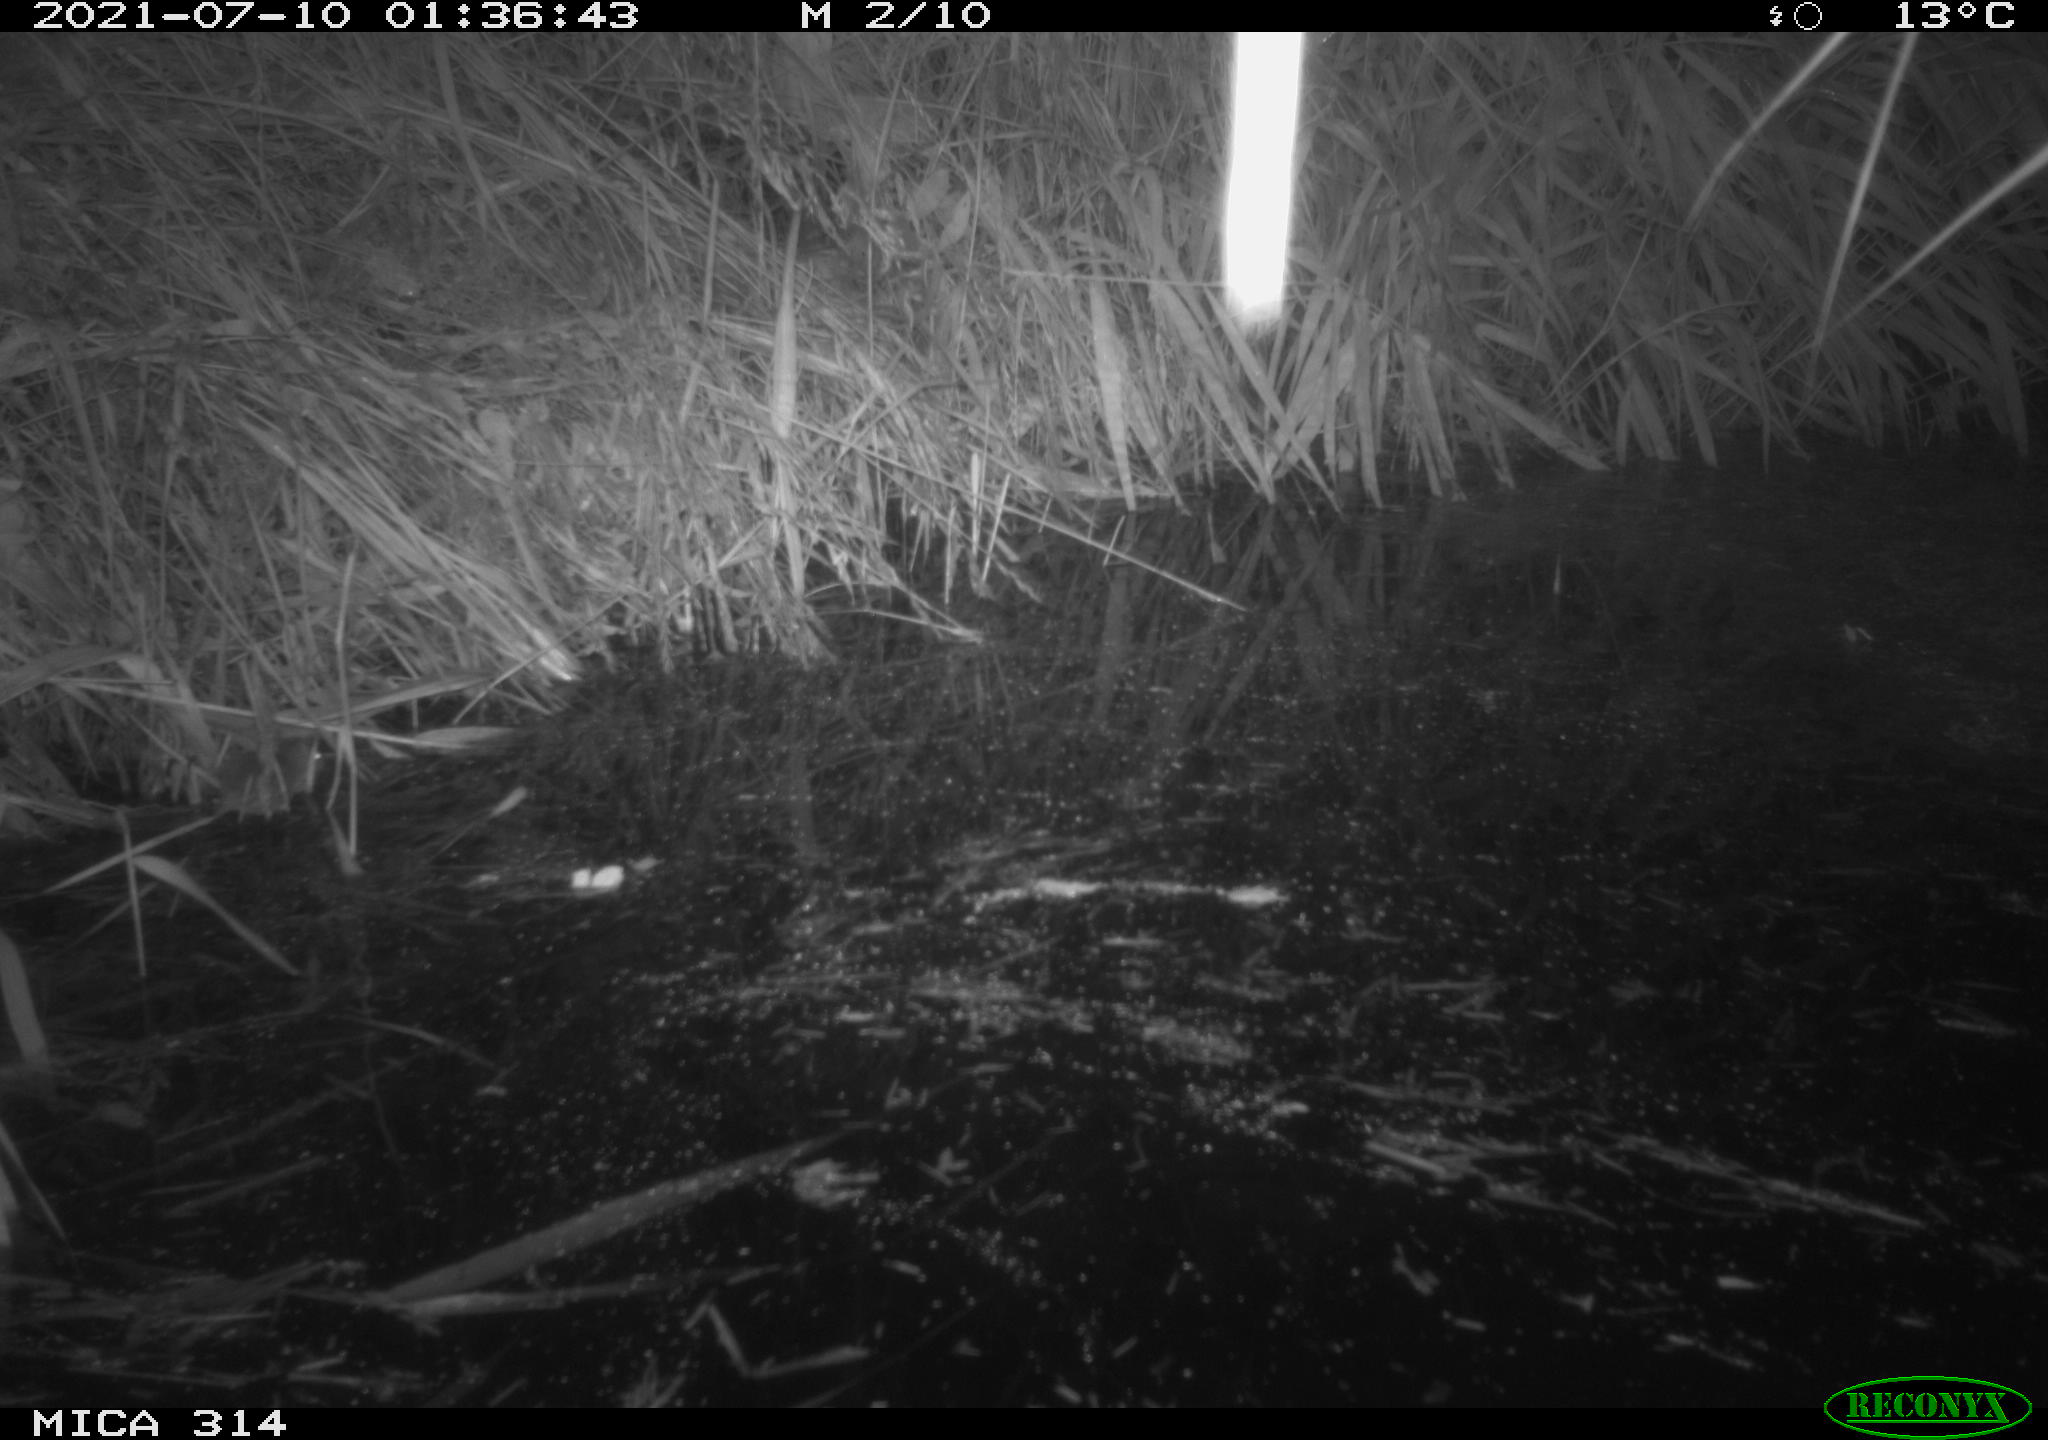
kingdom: Animalia
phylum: Chordata
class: Mammalia
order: Rodentia
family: Muridae
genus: Rattus
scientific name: Rattus norvegicus
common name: Brown rat
